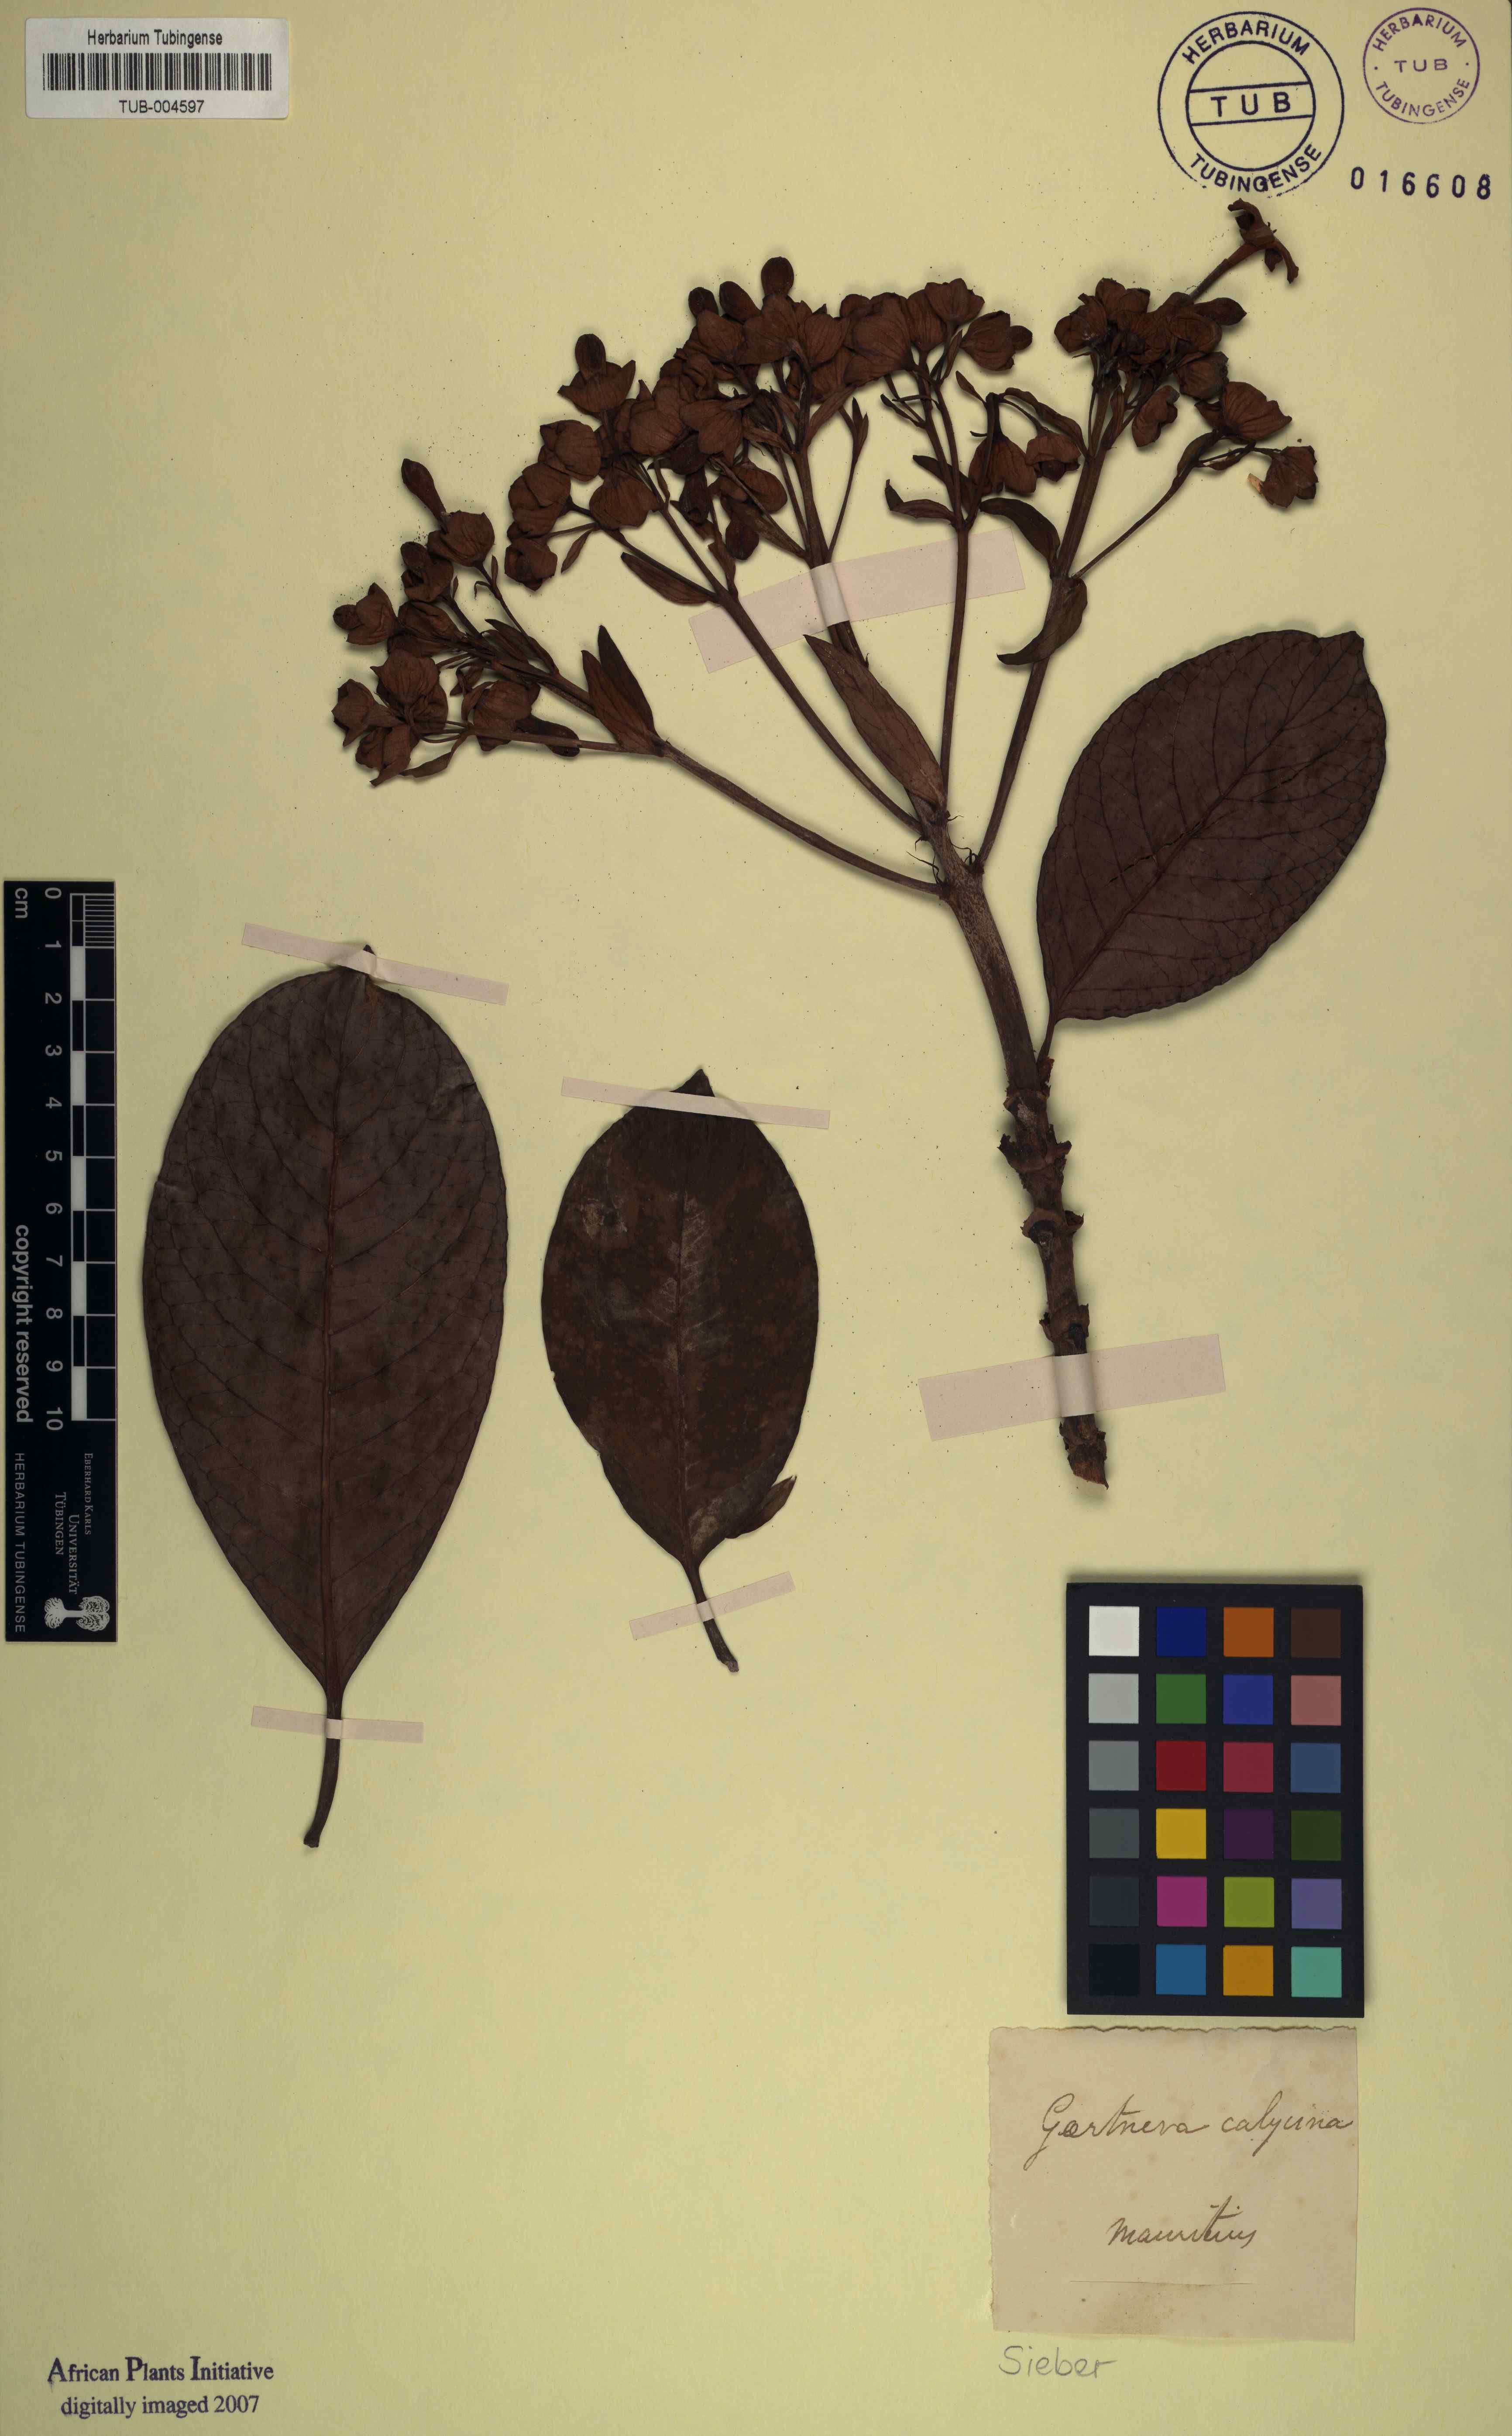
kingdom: Plantae
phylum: Tracheophyta
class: Magnoliopsida
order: Gentianales
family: Rubiaceae
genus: Gaertnera
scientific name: Gaertnera calycina
